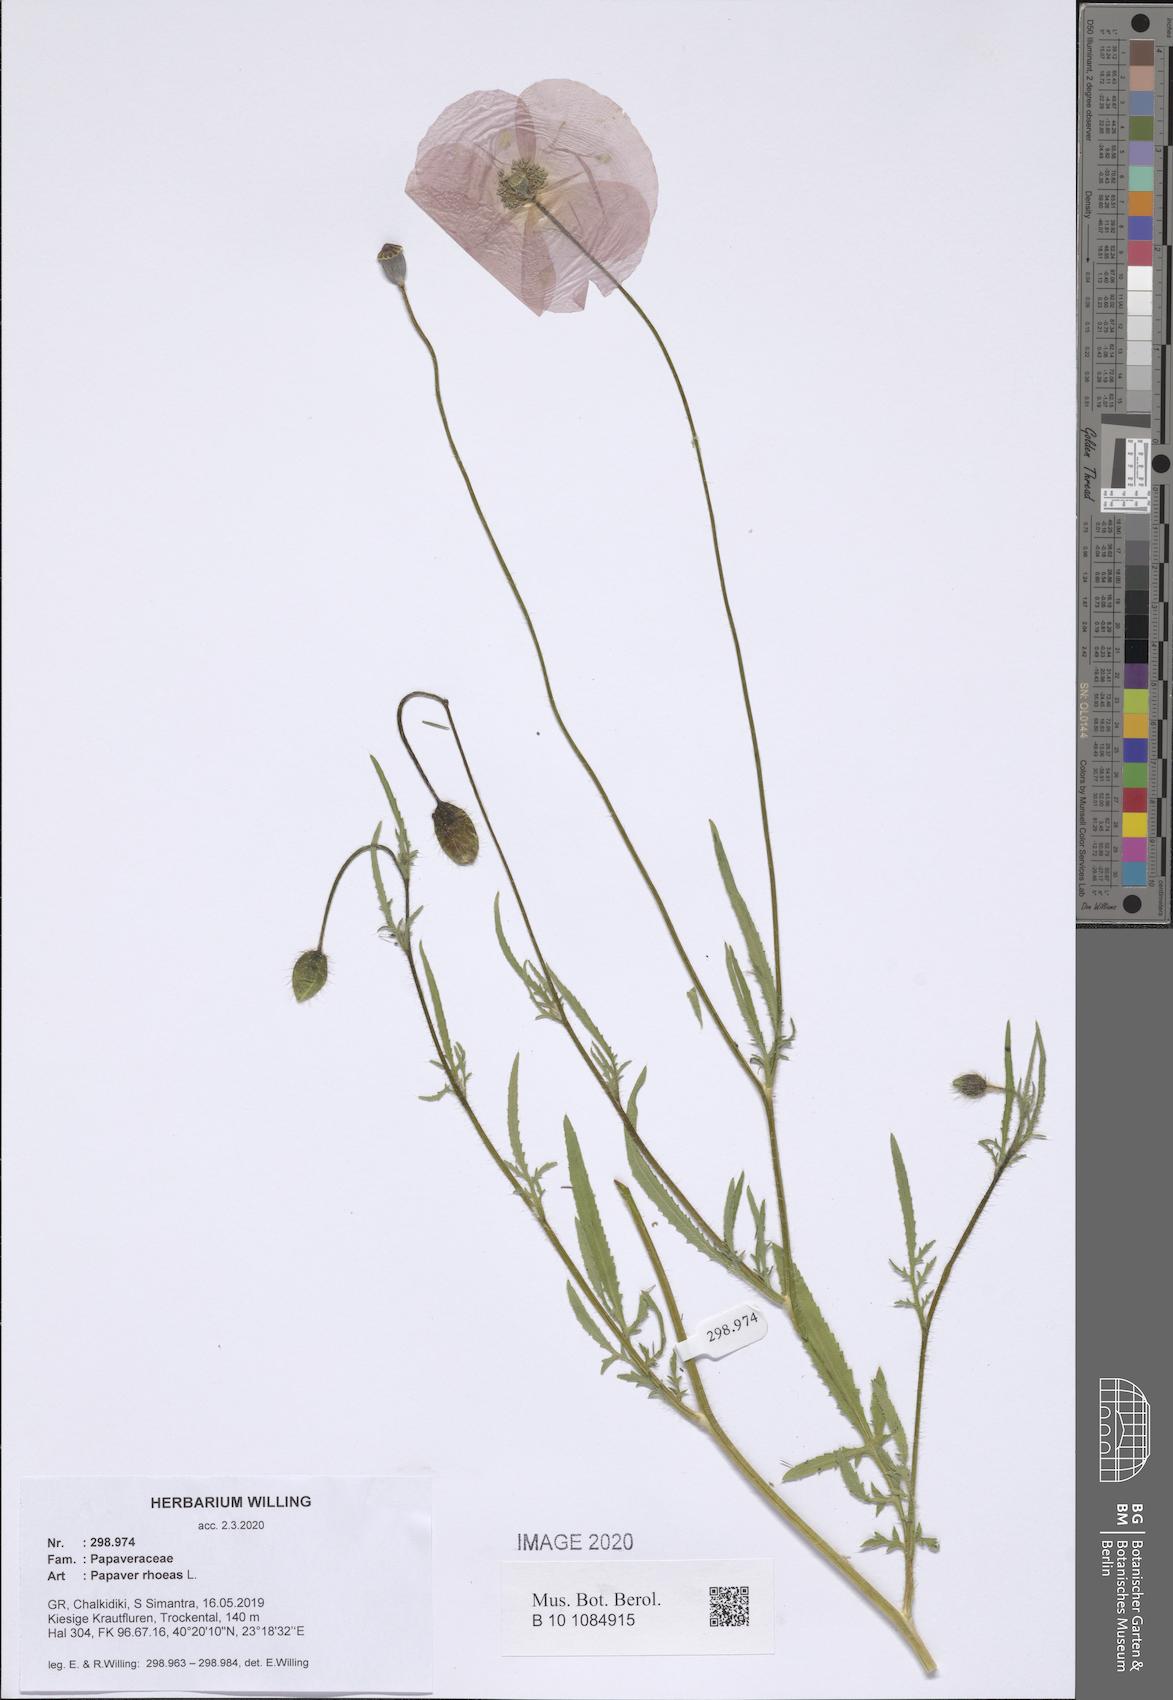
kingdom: Plantae
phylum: Tracheophyta
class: Magnoliopsida
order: Ranunculales
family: Papaveraceae
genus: Papaver
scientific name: Papaver rhoeas
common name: Corn poppy
